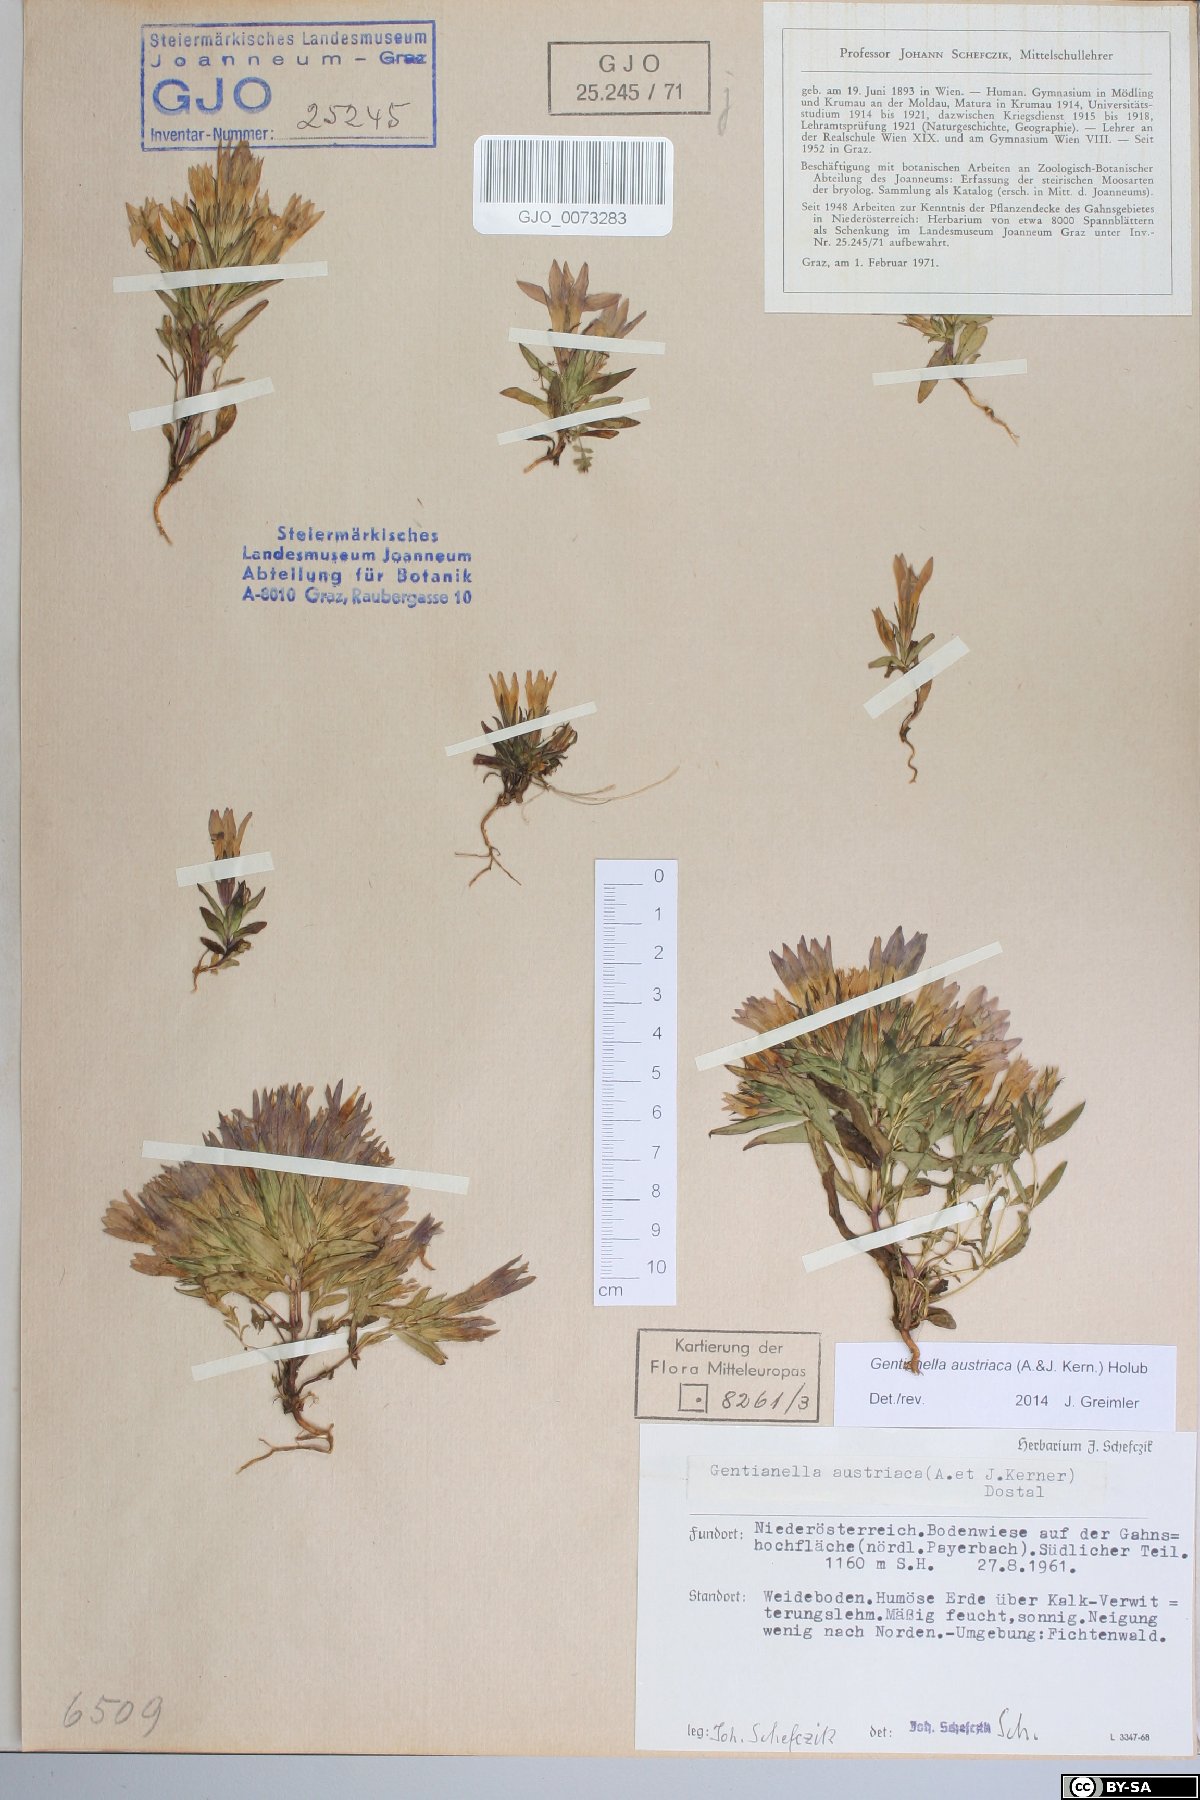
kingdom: Plantae
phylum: Tracheophyta
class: Magnoliopsida
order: Gentianales
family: Gentianaceae
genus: Gentianella
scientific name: Gentianella austriaca
